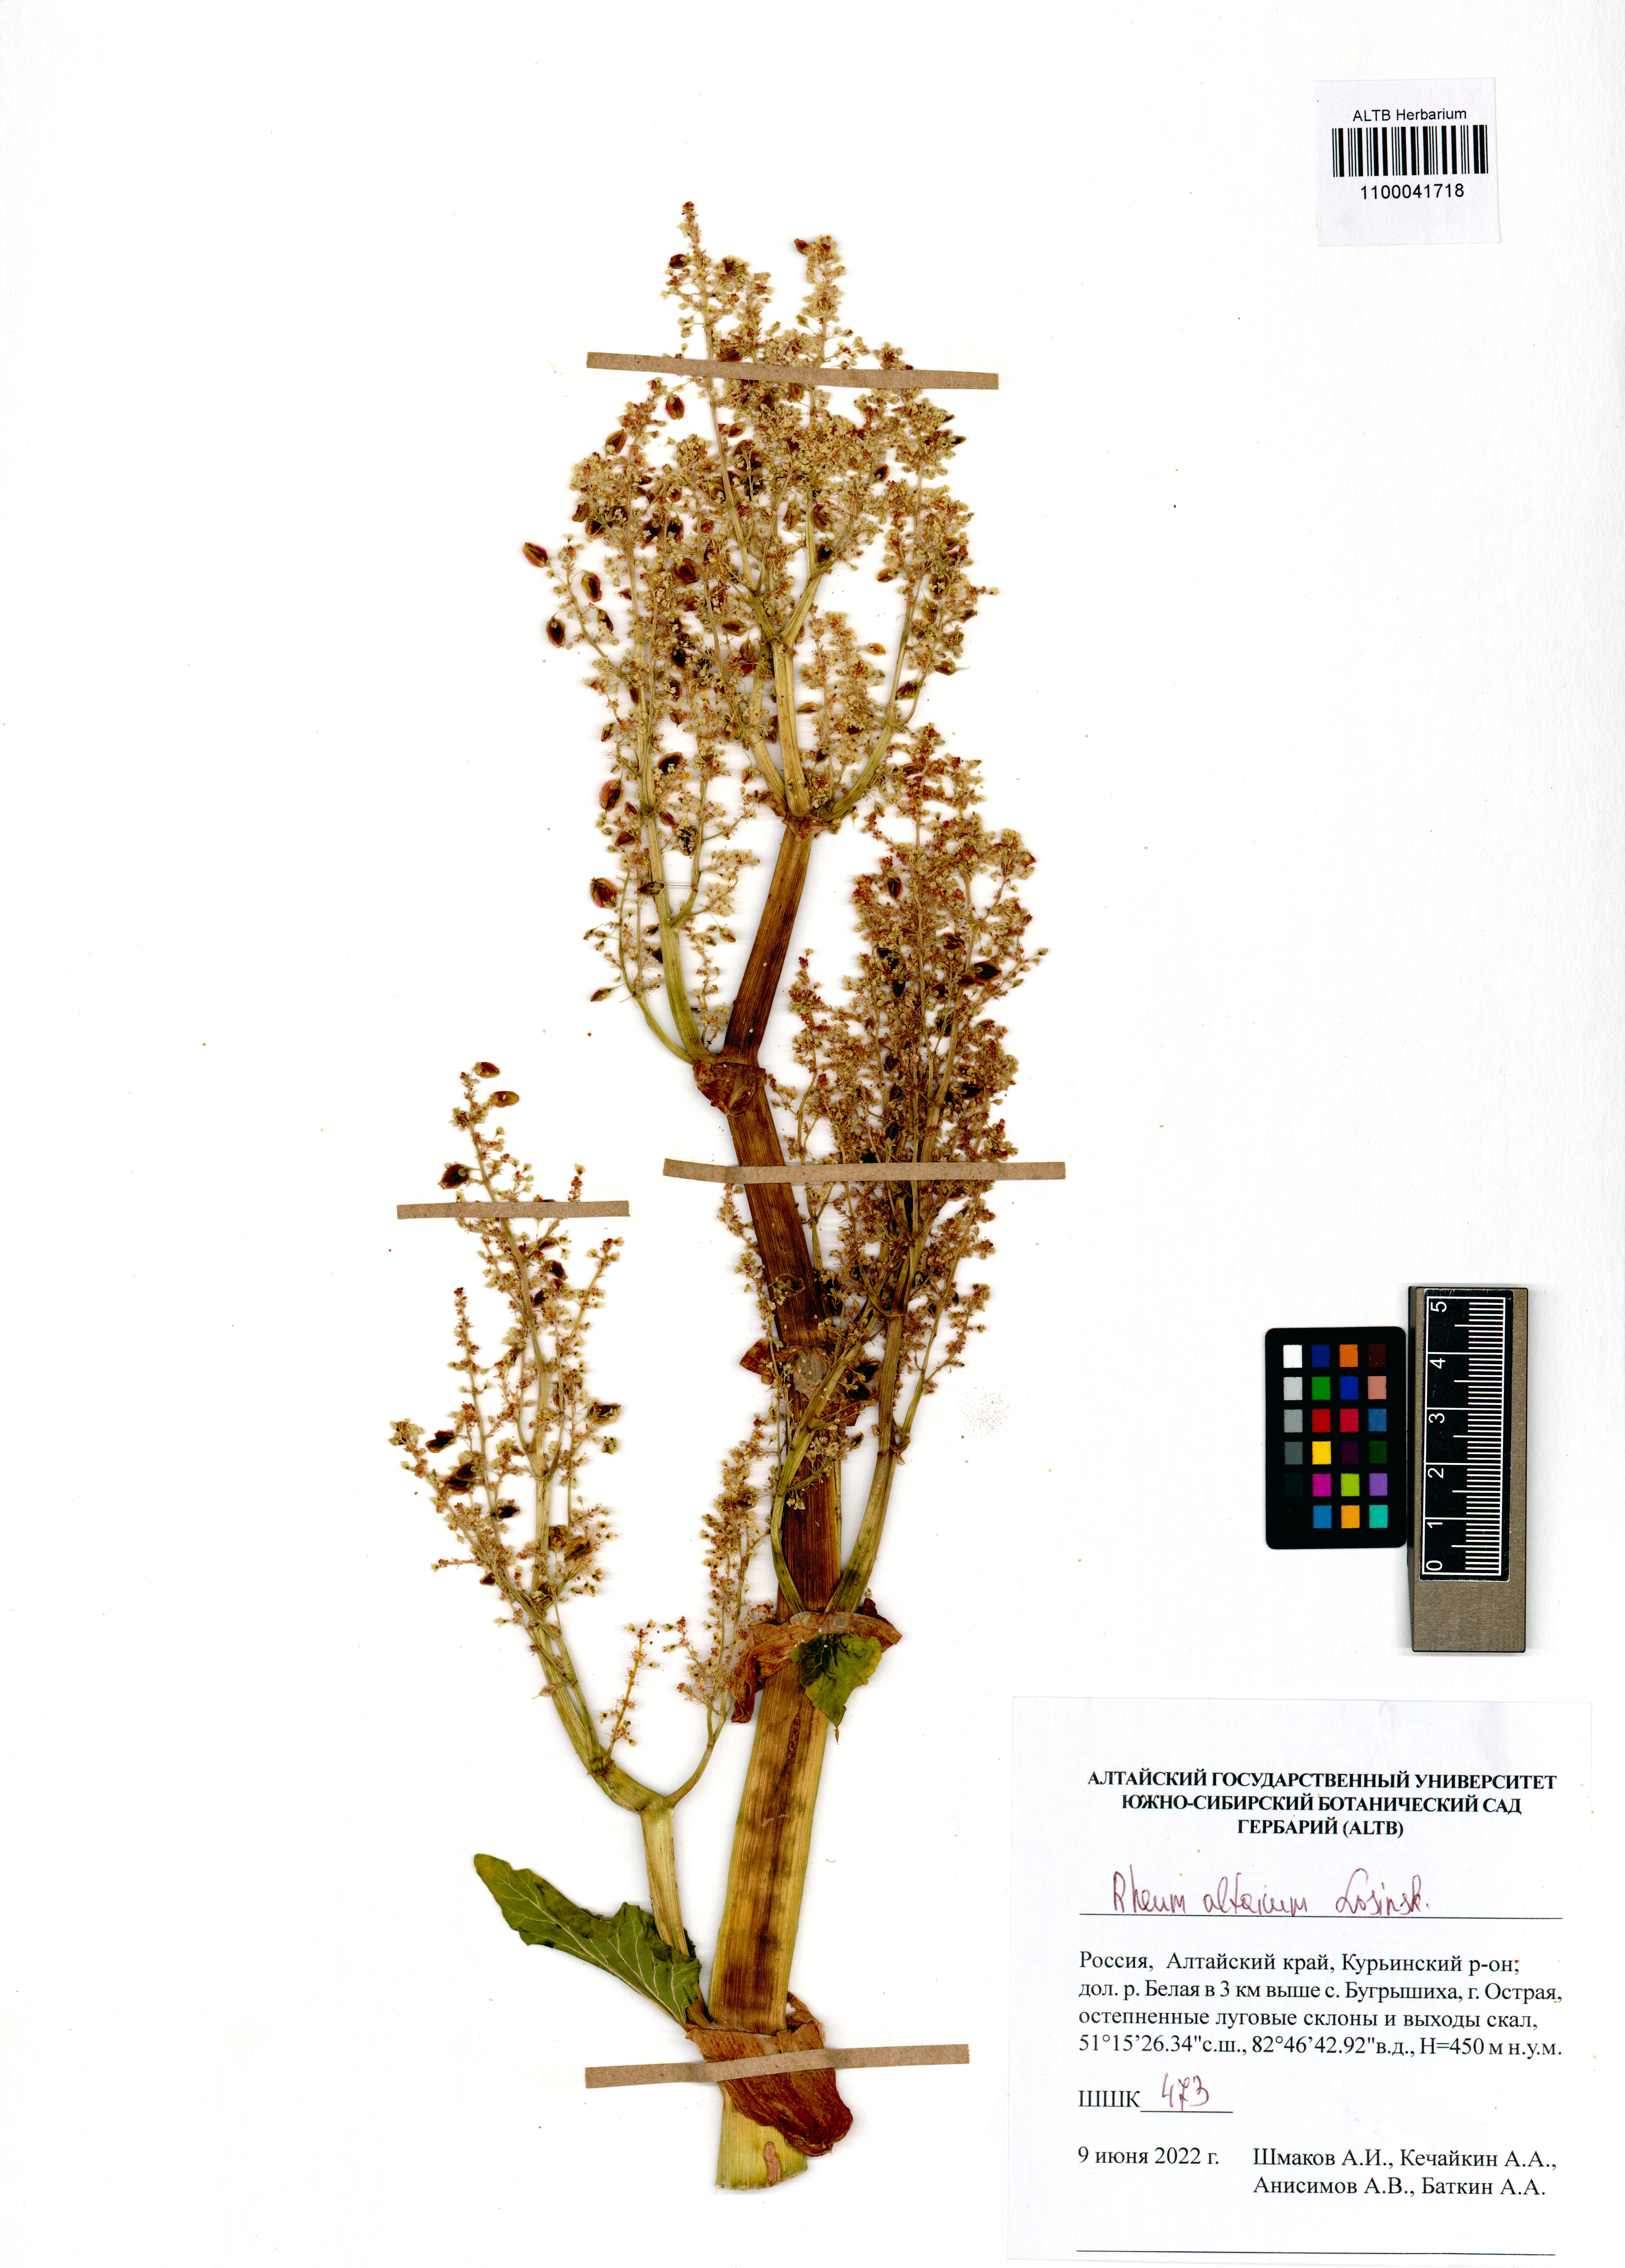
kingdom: Plantae
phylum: Tracheophyta
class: Magnoliopsida
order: Caryophyllales
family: Polygonaceae
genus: Rheum
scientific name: Rheum compactum
